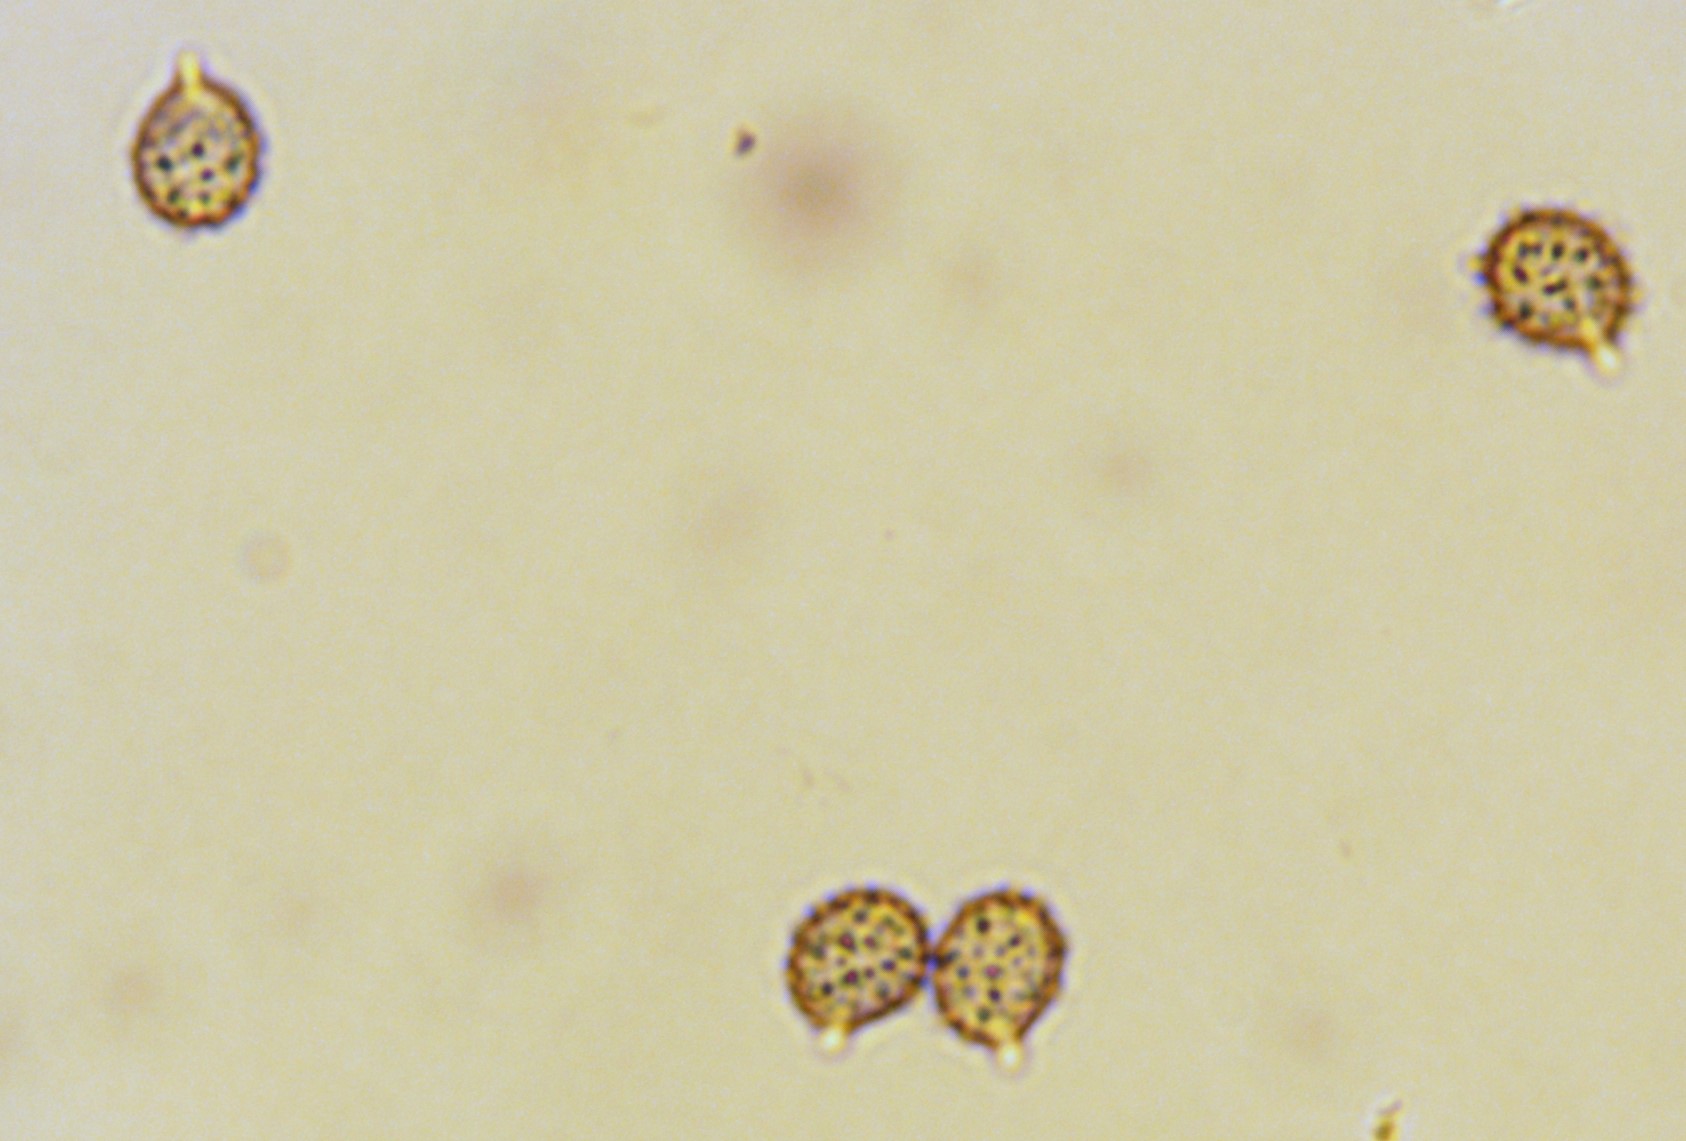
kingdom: Fungi
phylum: Basidiomycota
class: Agaricomycetes
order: Russulales
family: Russulaceae
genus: Russula
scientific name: Russula anatina
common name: ande-skørhat
